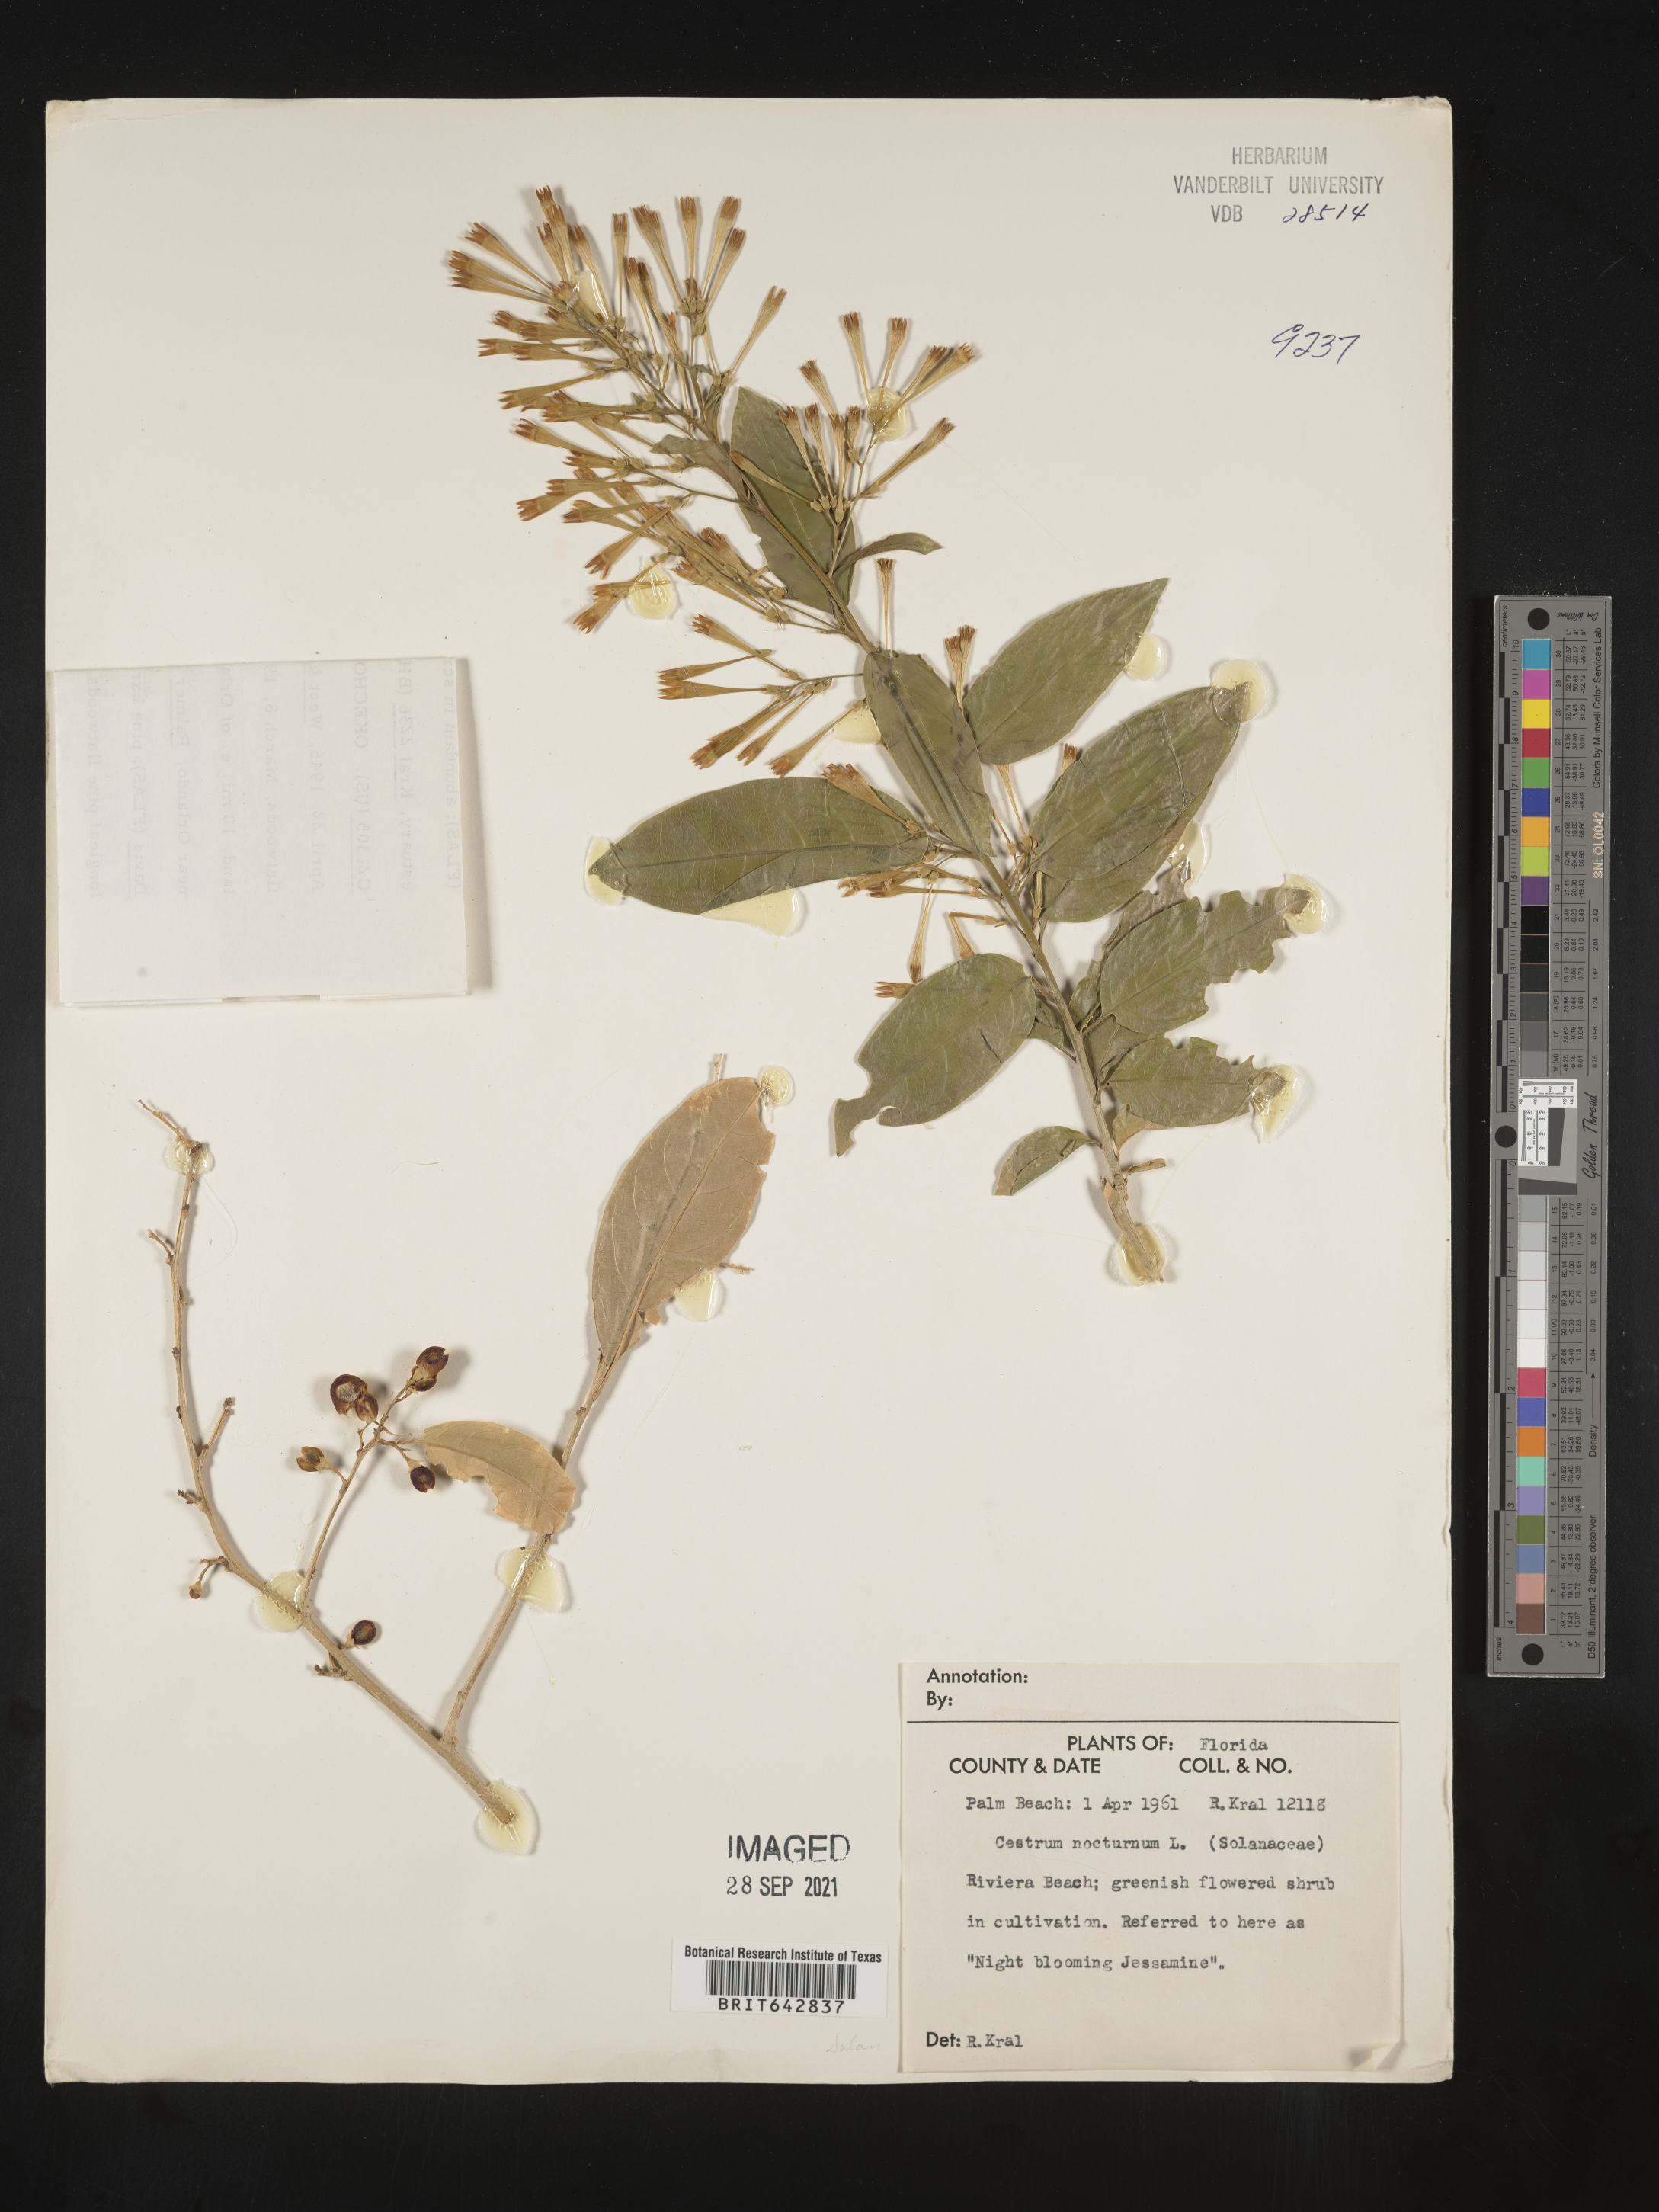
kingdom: Plantae
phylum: Tracheophyta
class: Magnoliopsida
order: Solanales
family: Solanaceae
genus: Cestrum
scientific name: Cestrum
